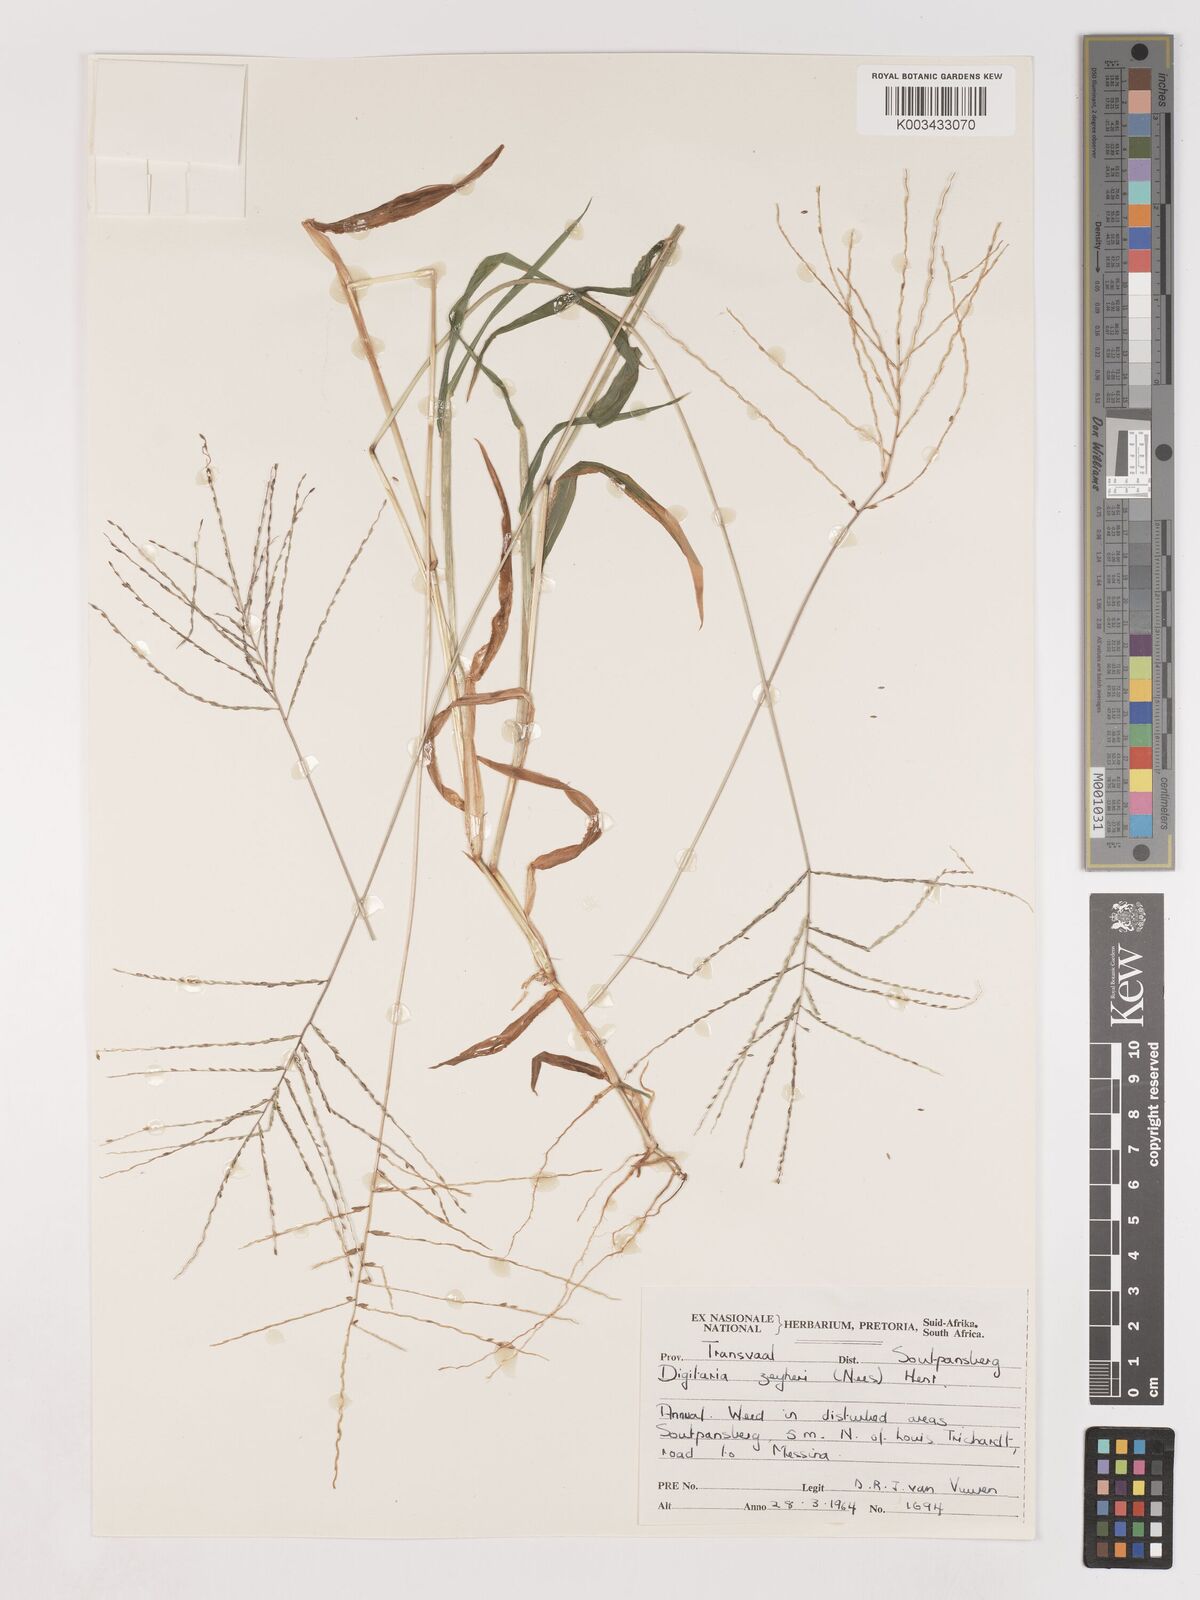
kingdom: Plantae
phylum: Tracheophyta
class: Liliopsida
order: Poales
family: Poaceae
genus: Digitaria
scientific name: Digitaria velutina
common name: Long-plume finger grass
